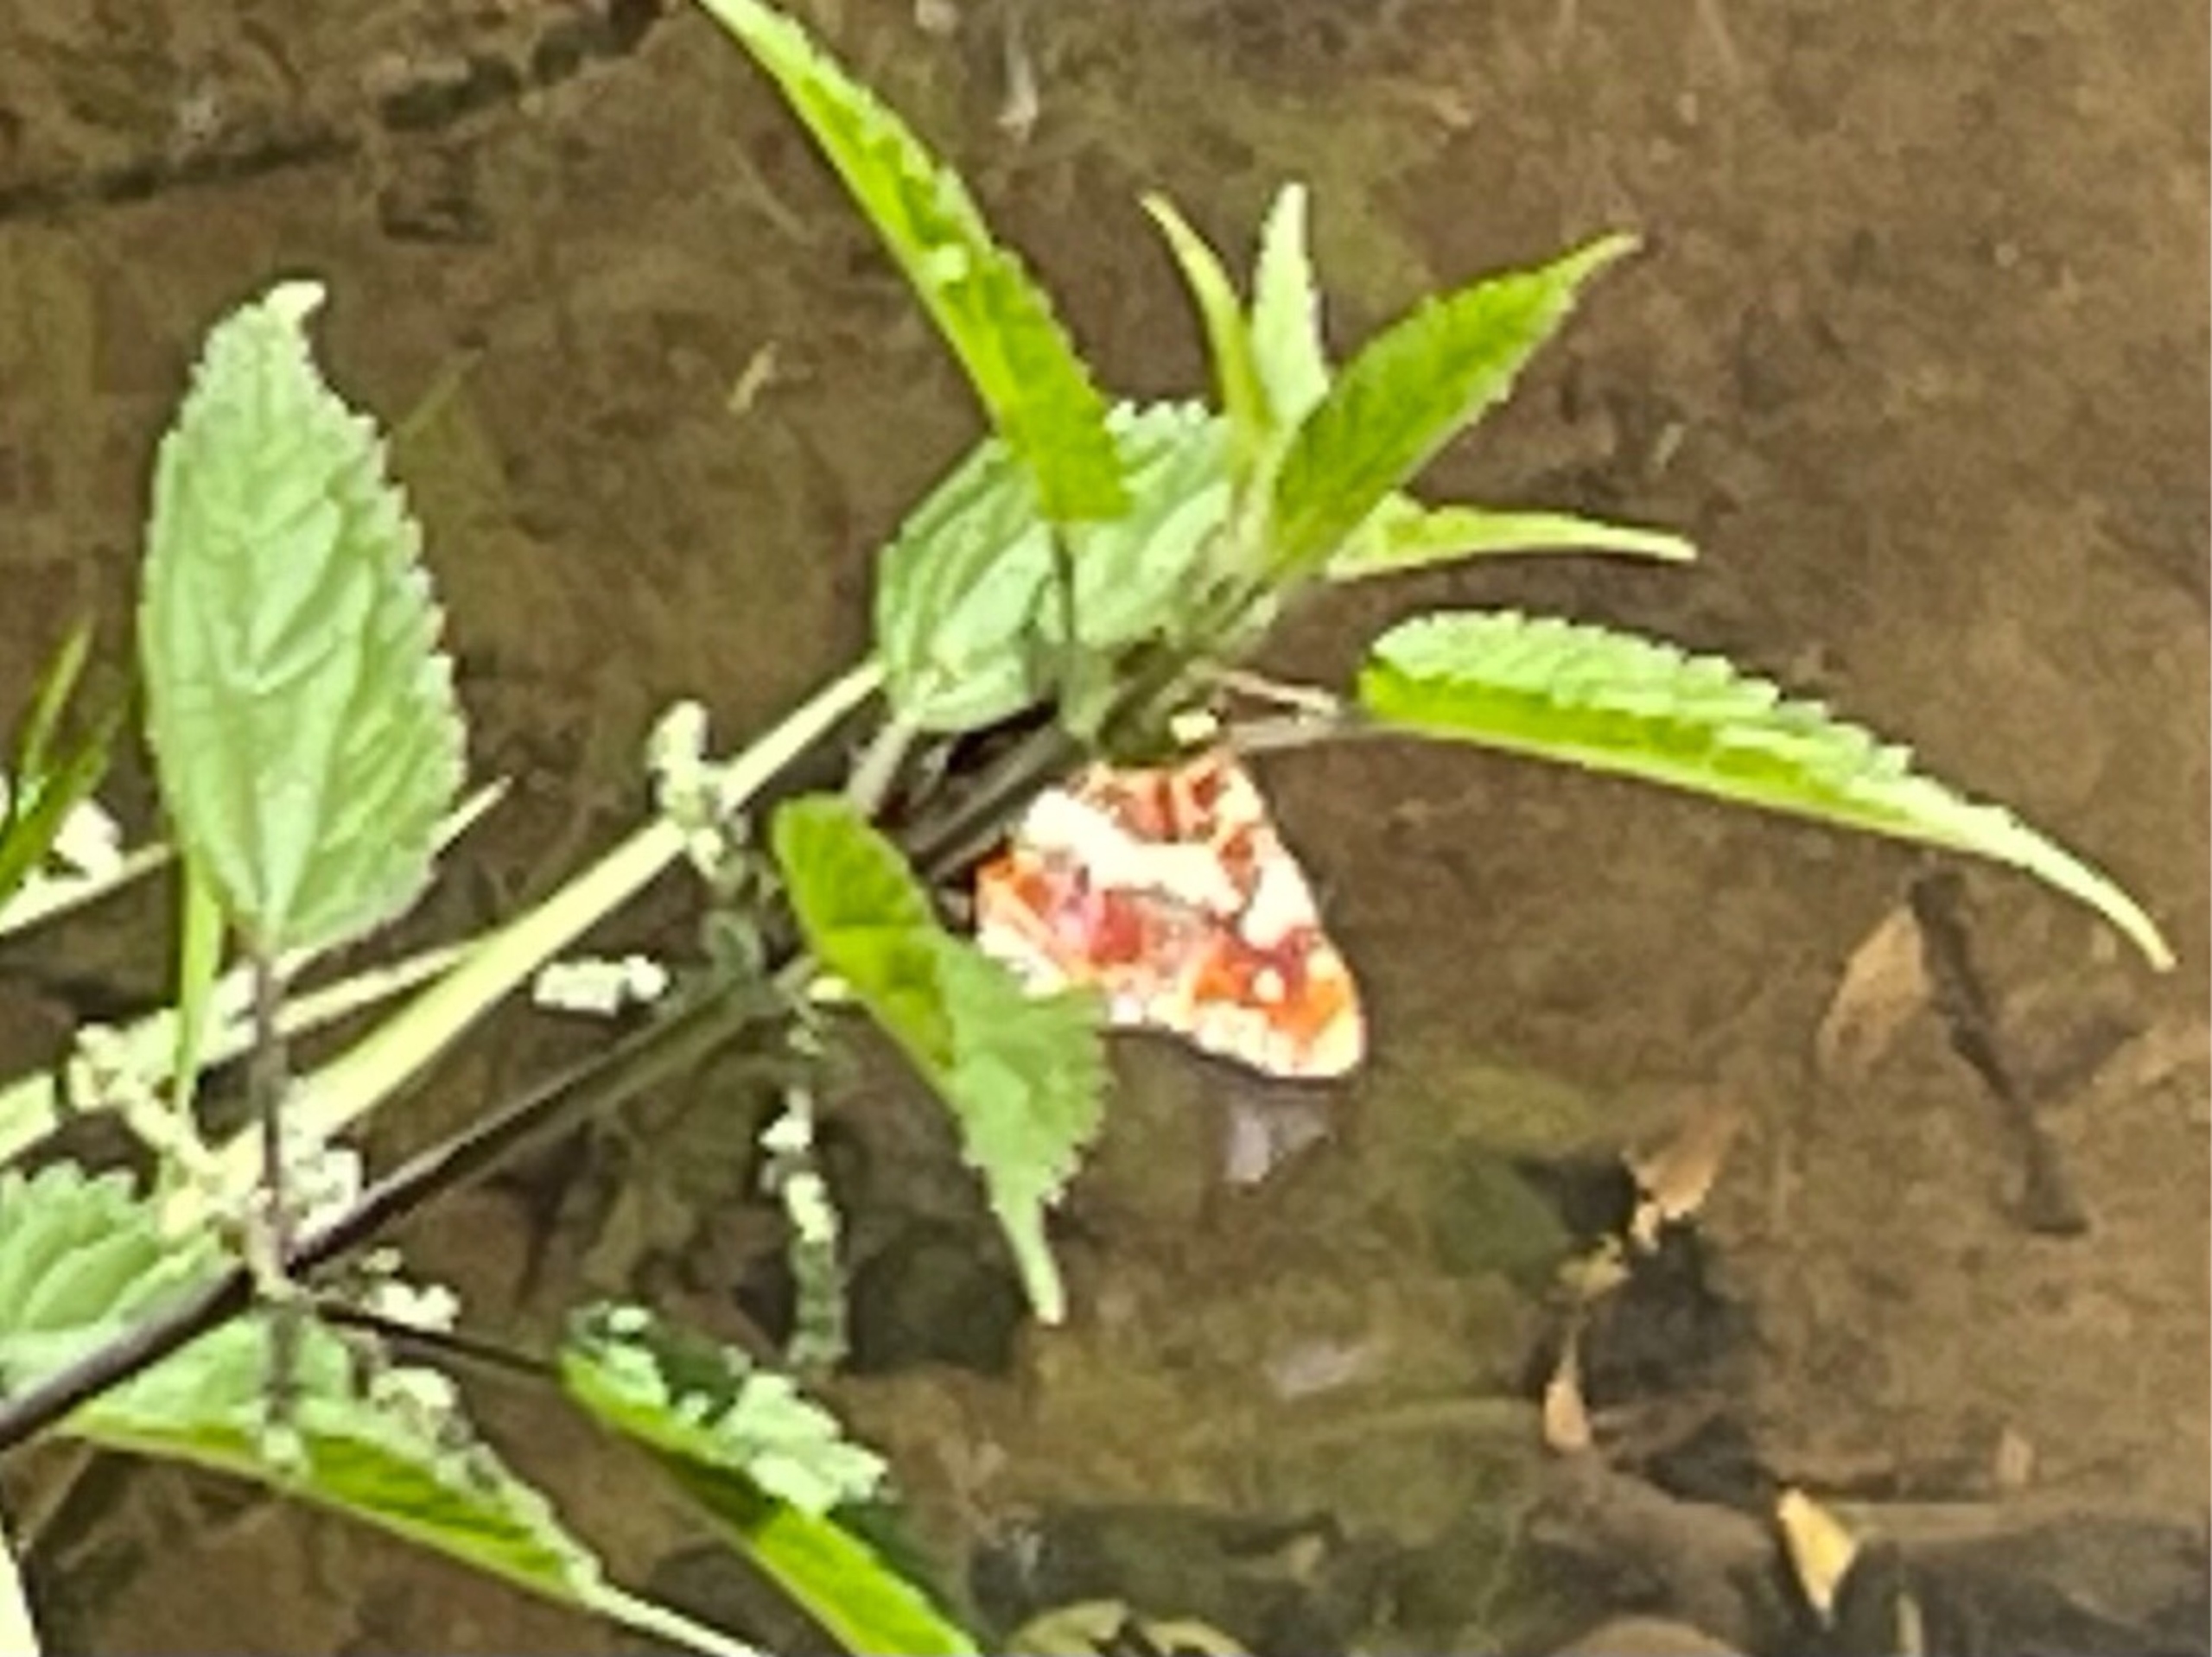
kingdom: Animalia
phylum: Arthropoda
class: Insecta
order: Lepidoptera
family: Nymphalidae
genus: Araschnia
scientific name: Araschnia levana
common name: Nældesommerfugl
